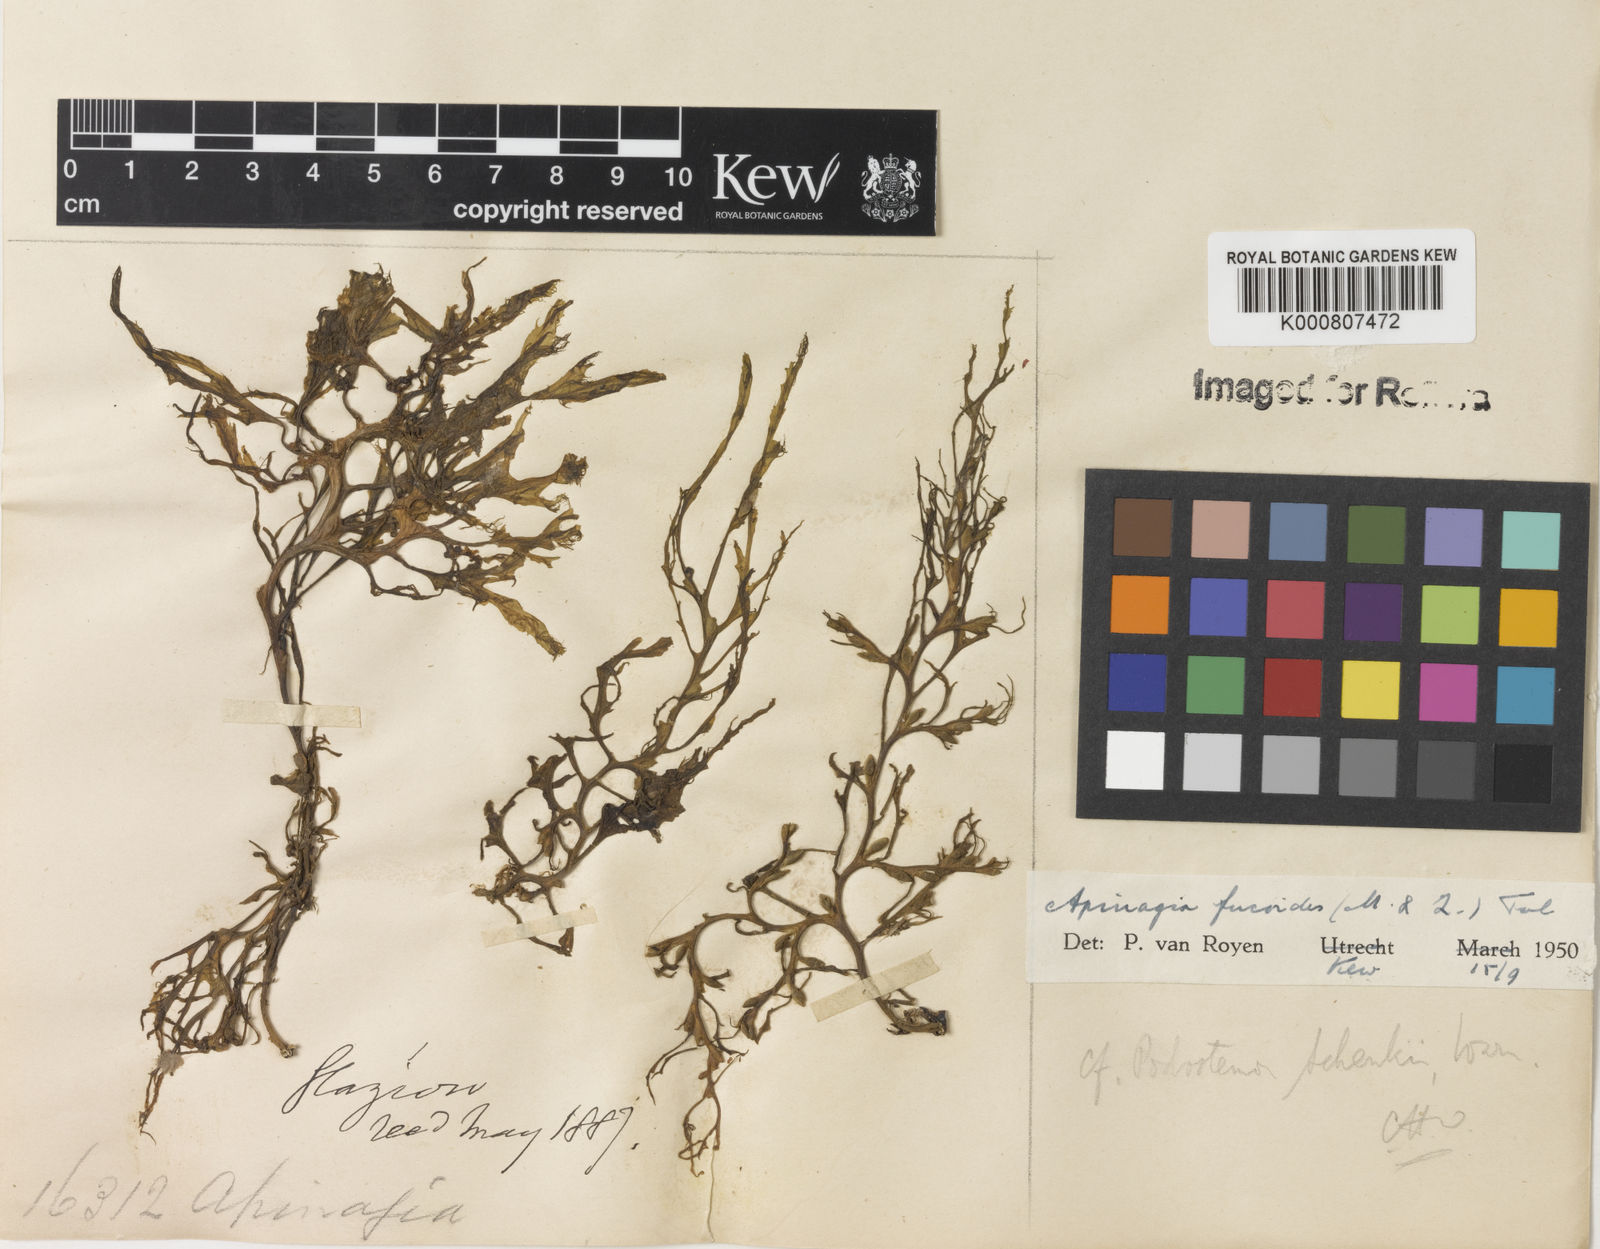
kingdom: Plantae
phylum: Tracheophyta
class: Magnoliopsida
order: Malpighiales
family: Podostemaceae
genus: Apinagia
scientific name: Apinagia fucoides
